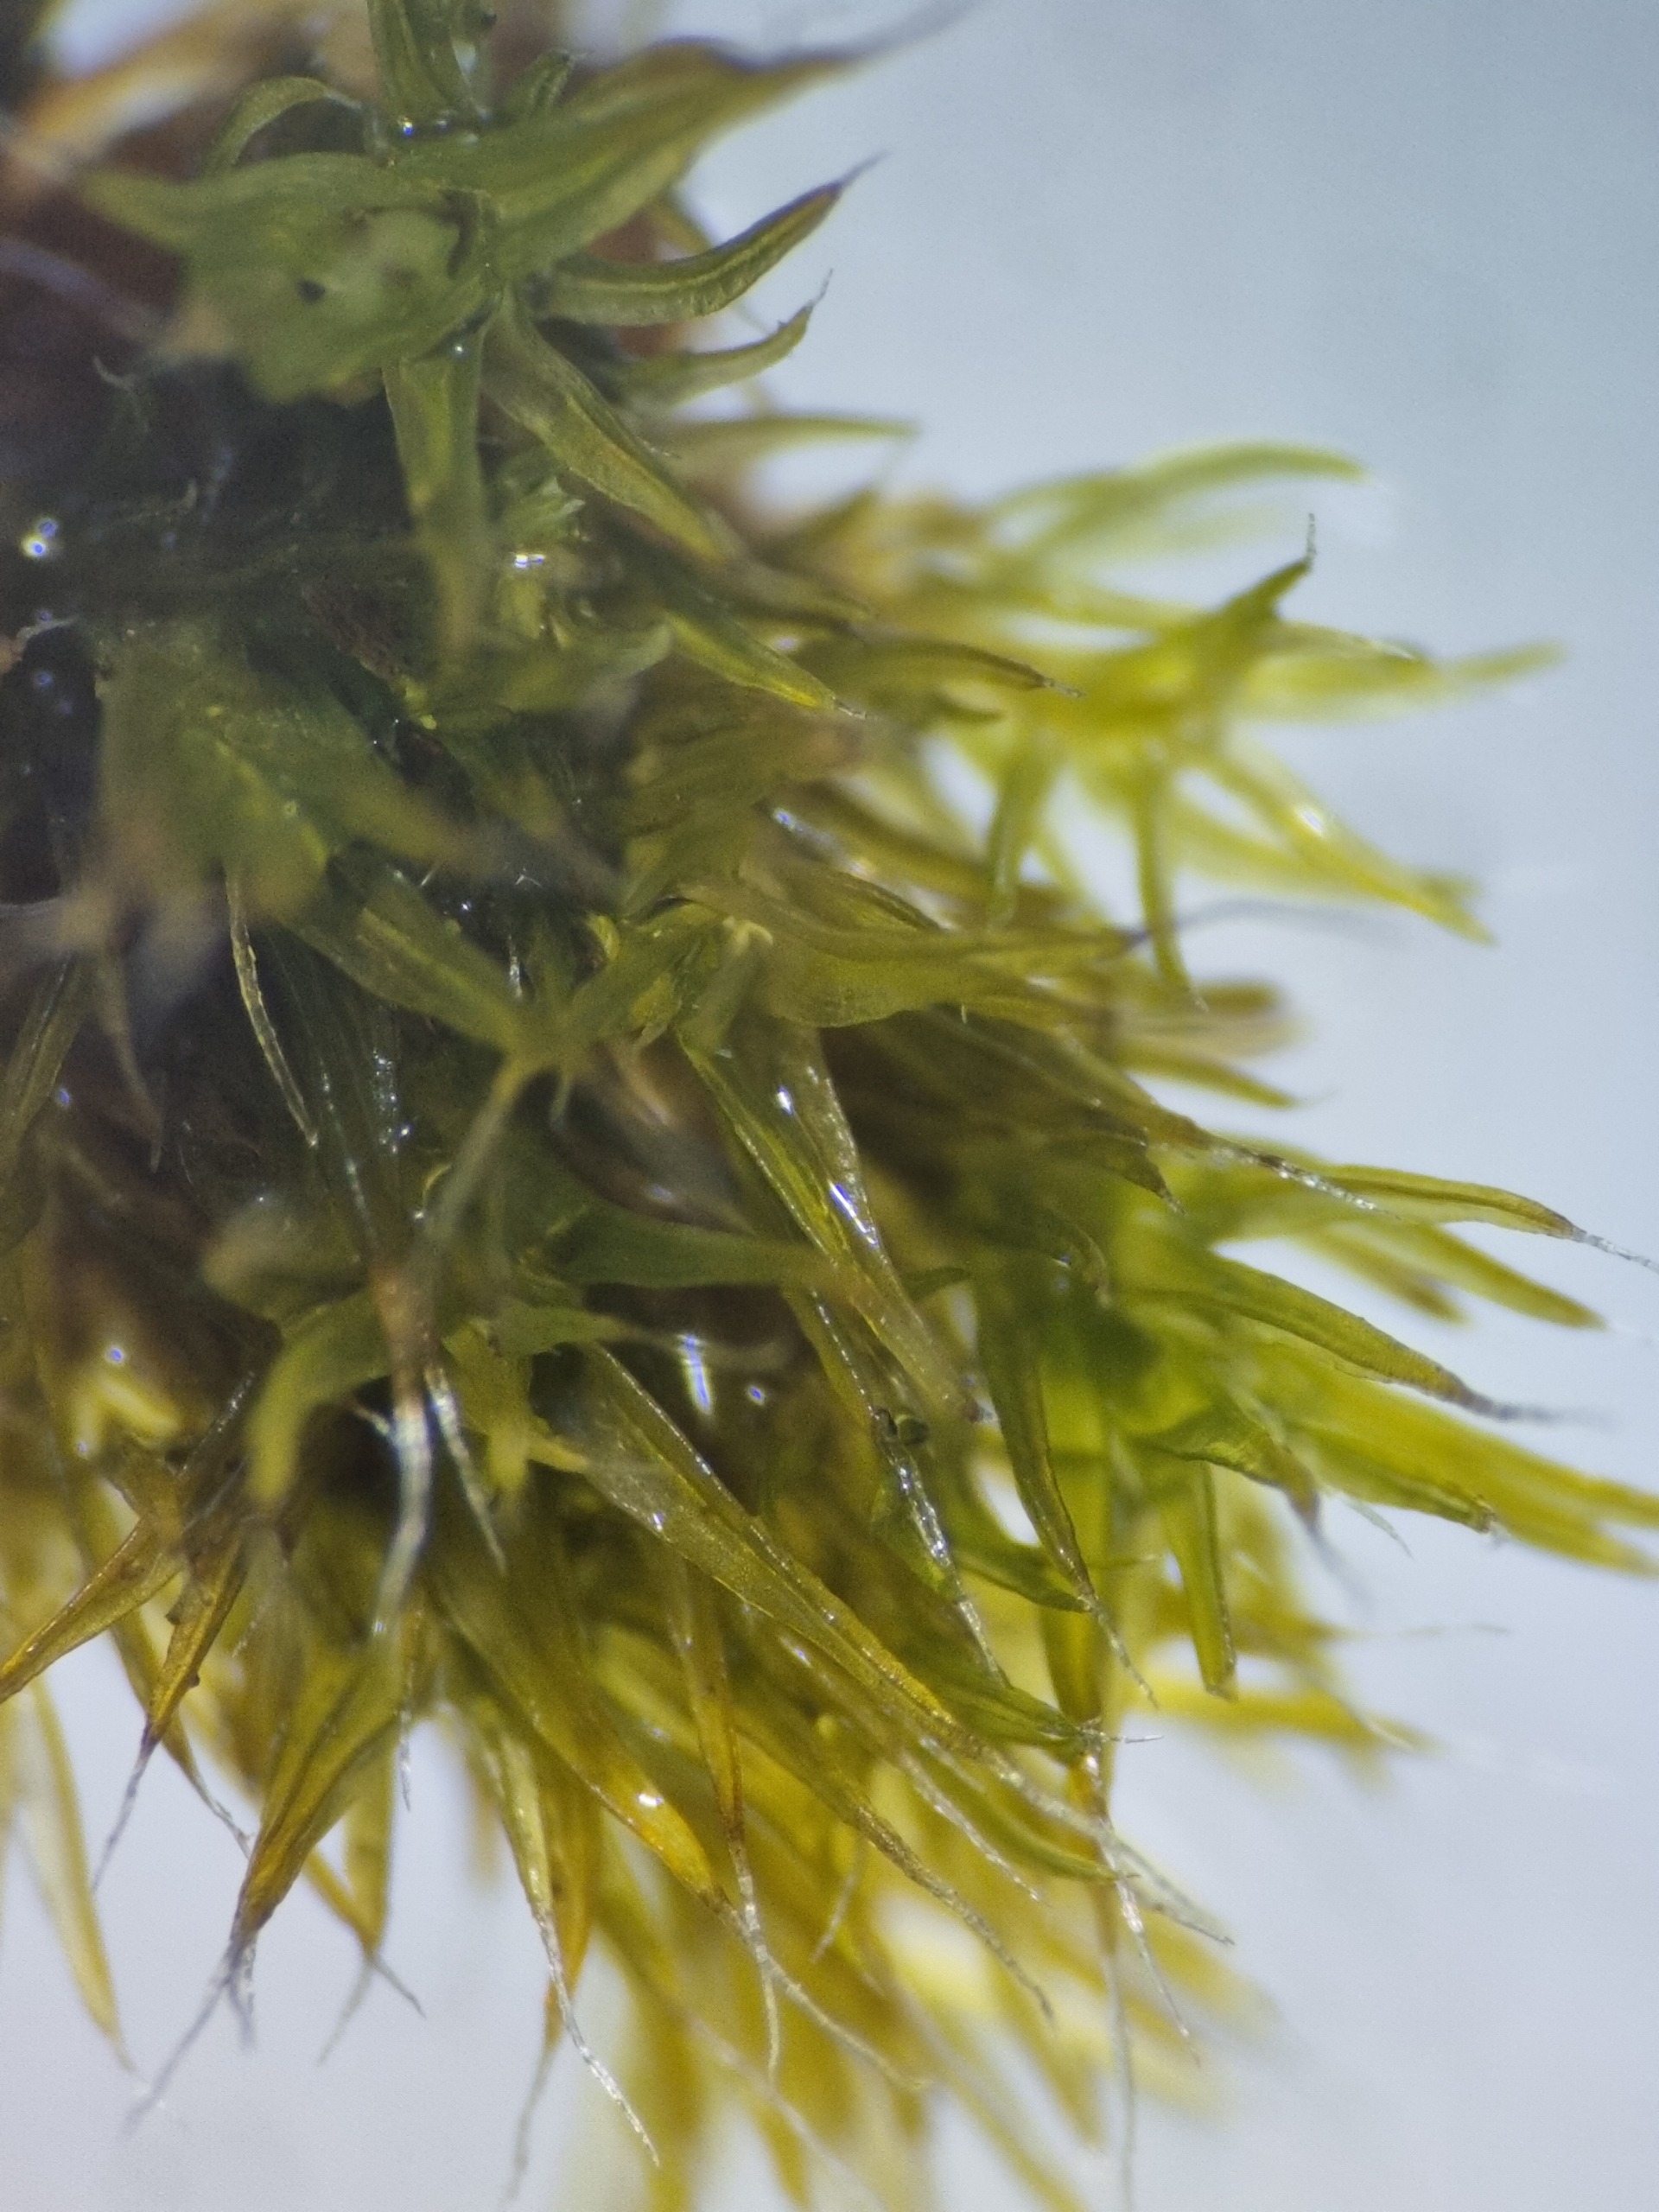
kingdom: Plantae
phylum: Bryophyta
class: Bryopsida
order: Grimmiales
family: Grimmiaceae
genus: Grimmia
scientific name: Grimmia trichophylla
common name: Glathåret gråmos
